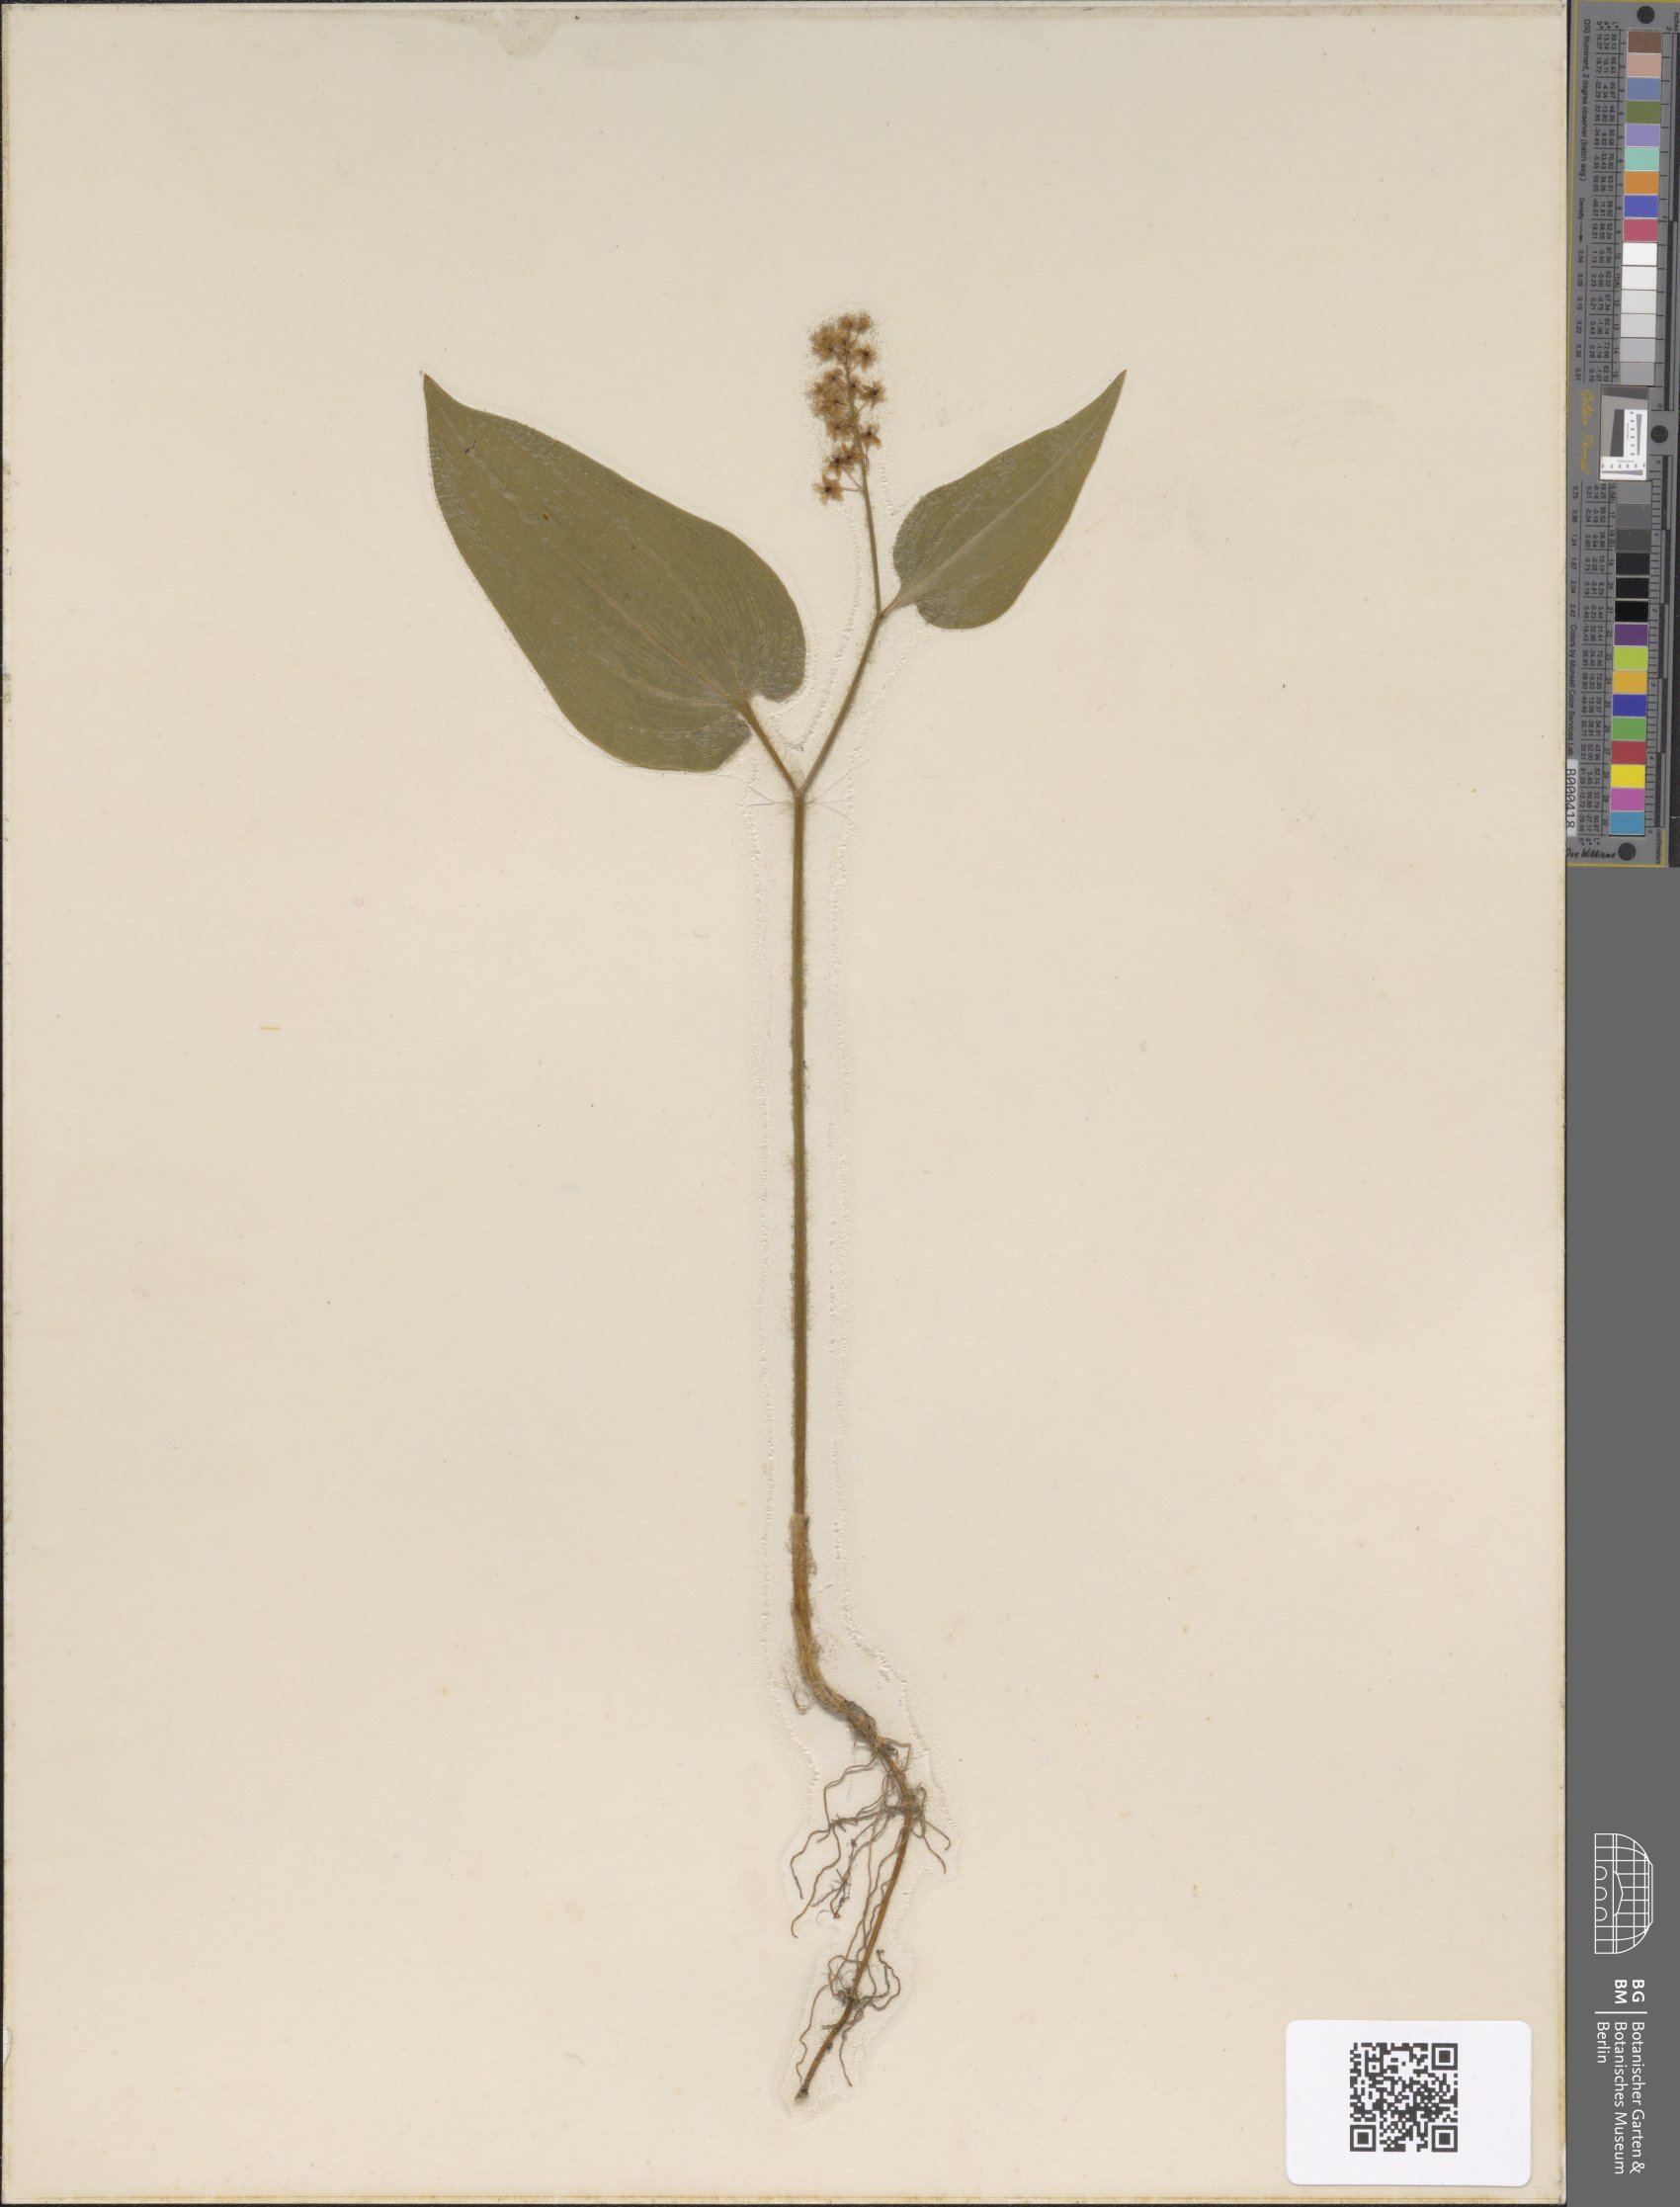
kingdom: Plantae
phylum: Tracheophyta
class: Liliopsida
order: Asparagales
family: Asparagaceae
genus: Maianthemum
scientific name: Maianthemum bifolium
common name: May lily
